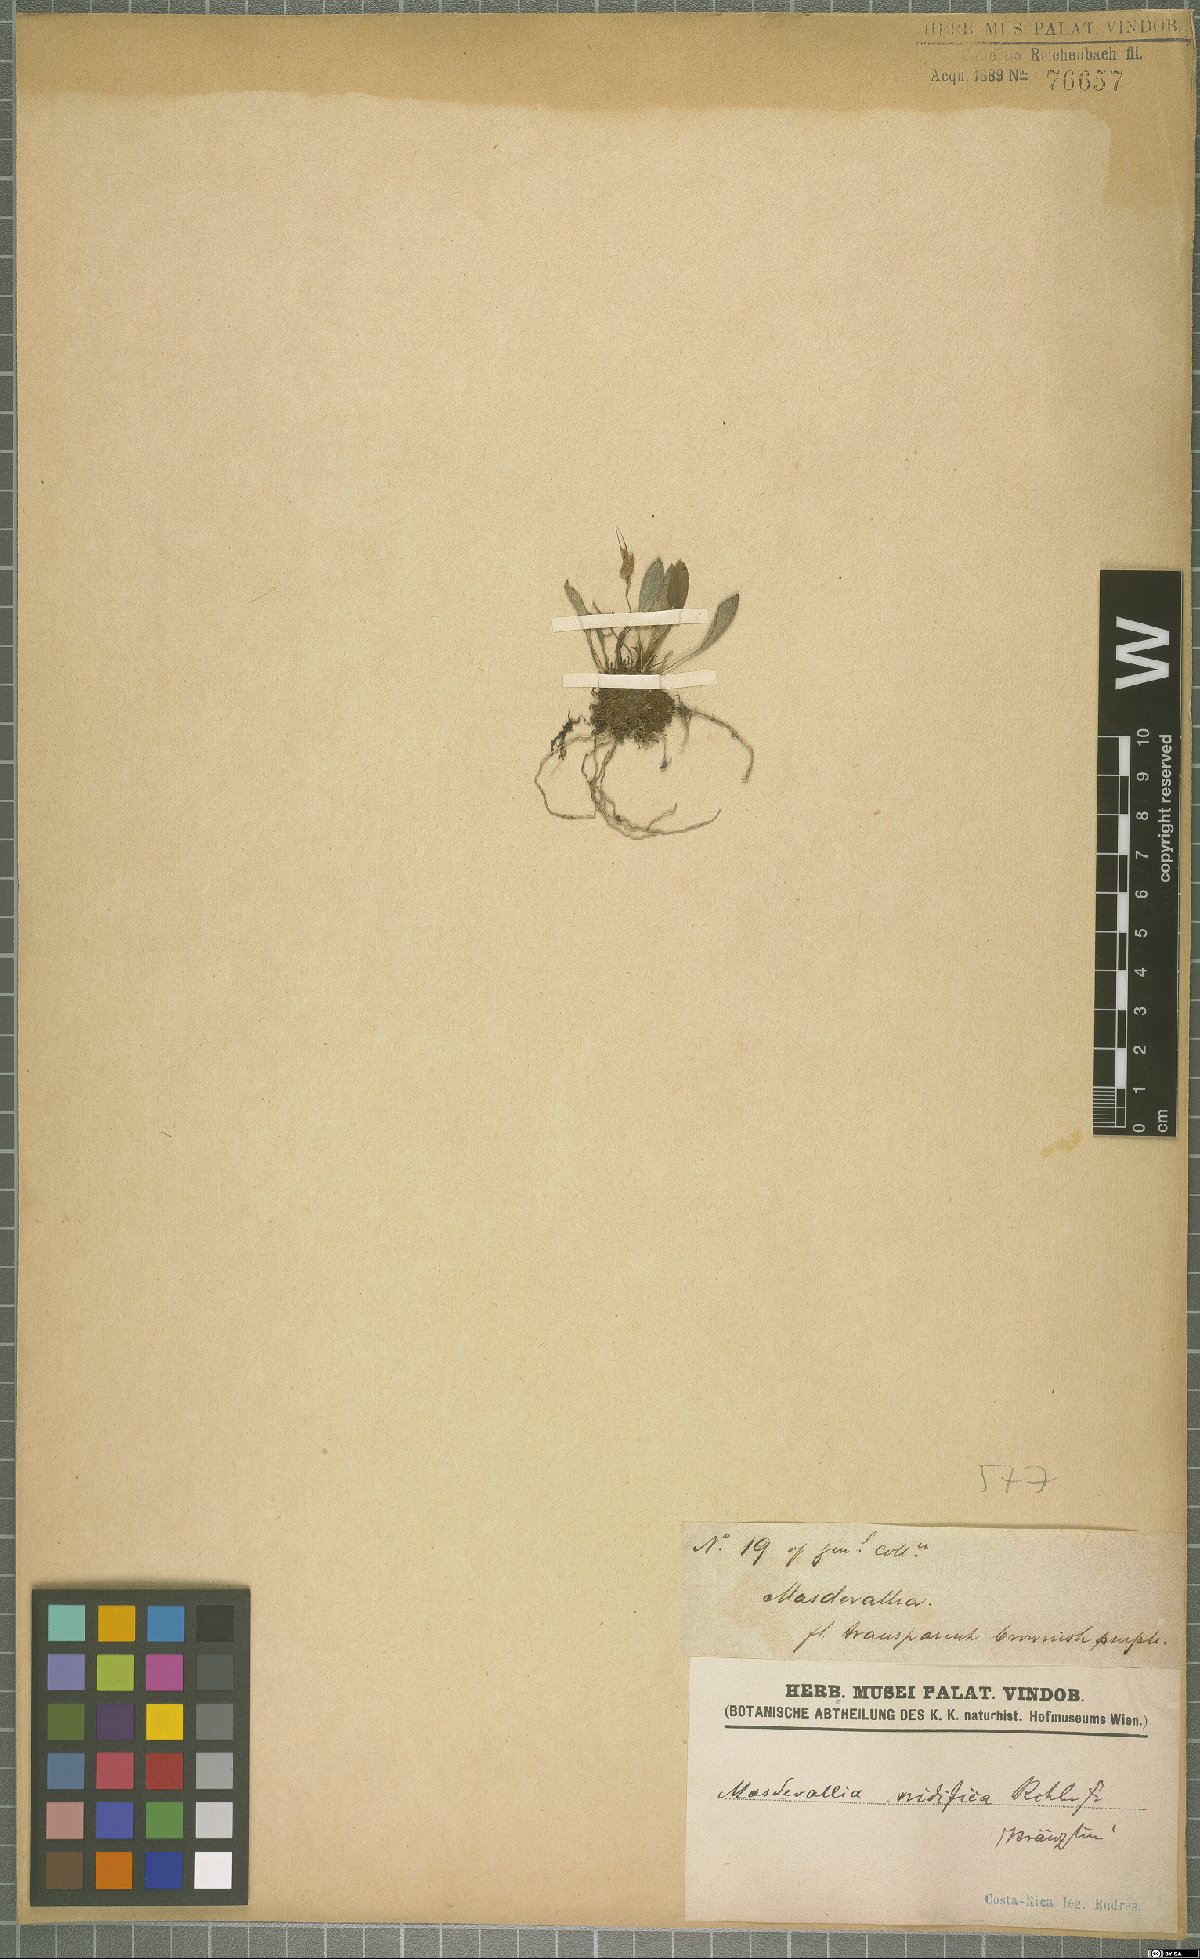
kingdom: Plantae
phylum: Tracheophyta
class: Liliopsida
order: Asparagales
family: Orchidaceae
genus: Masdevallia
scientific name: Masdevallia nidifica
